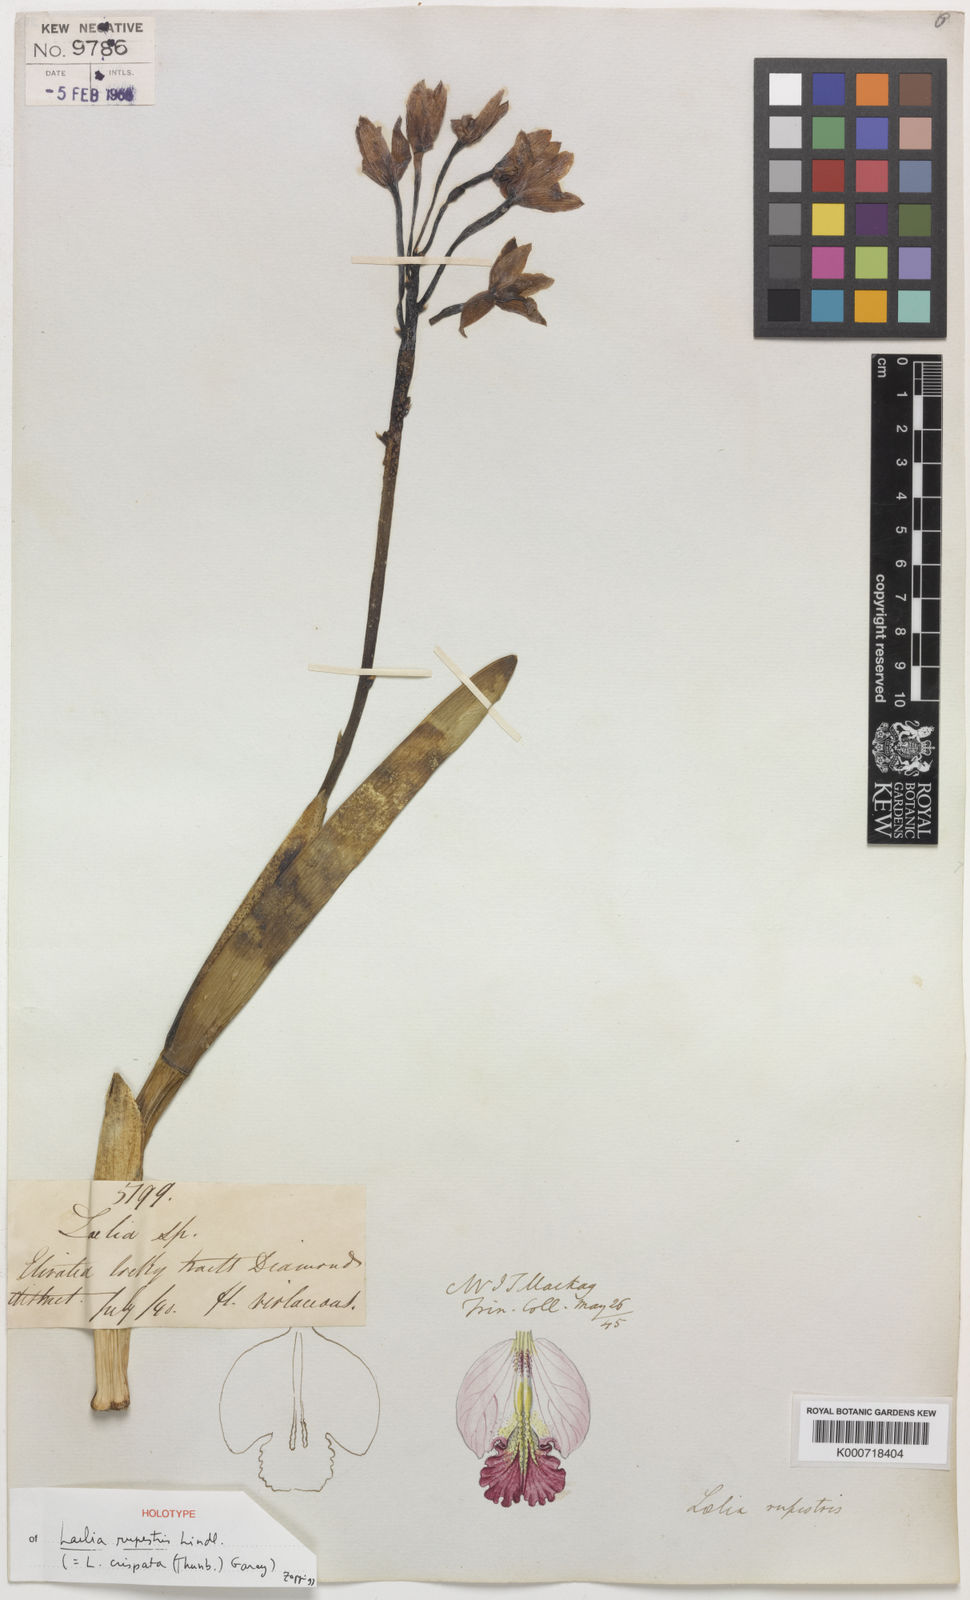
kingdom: Plantae
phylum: Tracheophyta
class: Liliopsida
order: Asparagales
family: Orchidaceae
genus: Cattleya
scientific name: Cattleya rupestris
